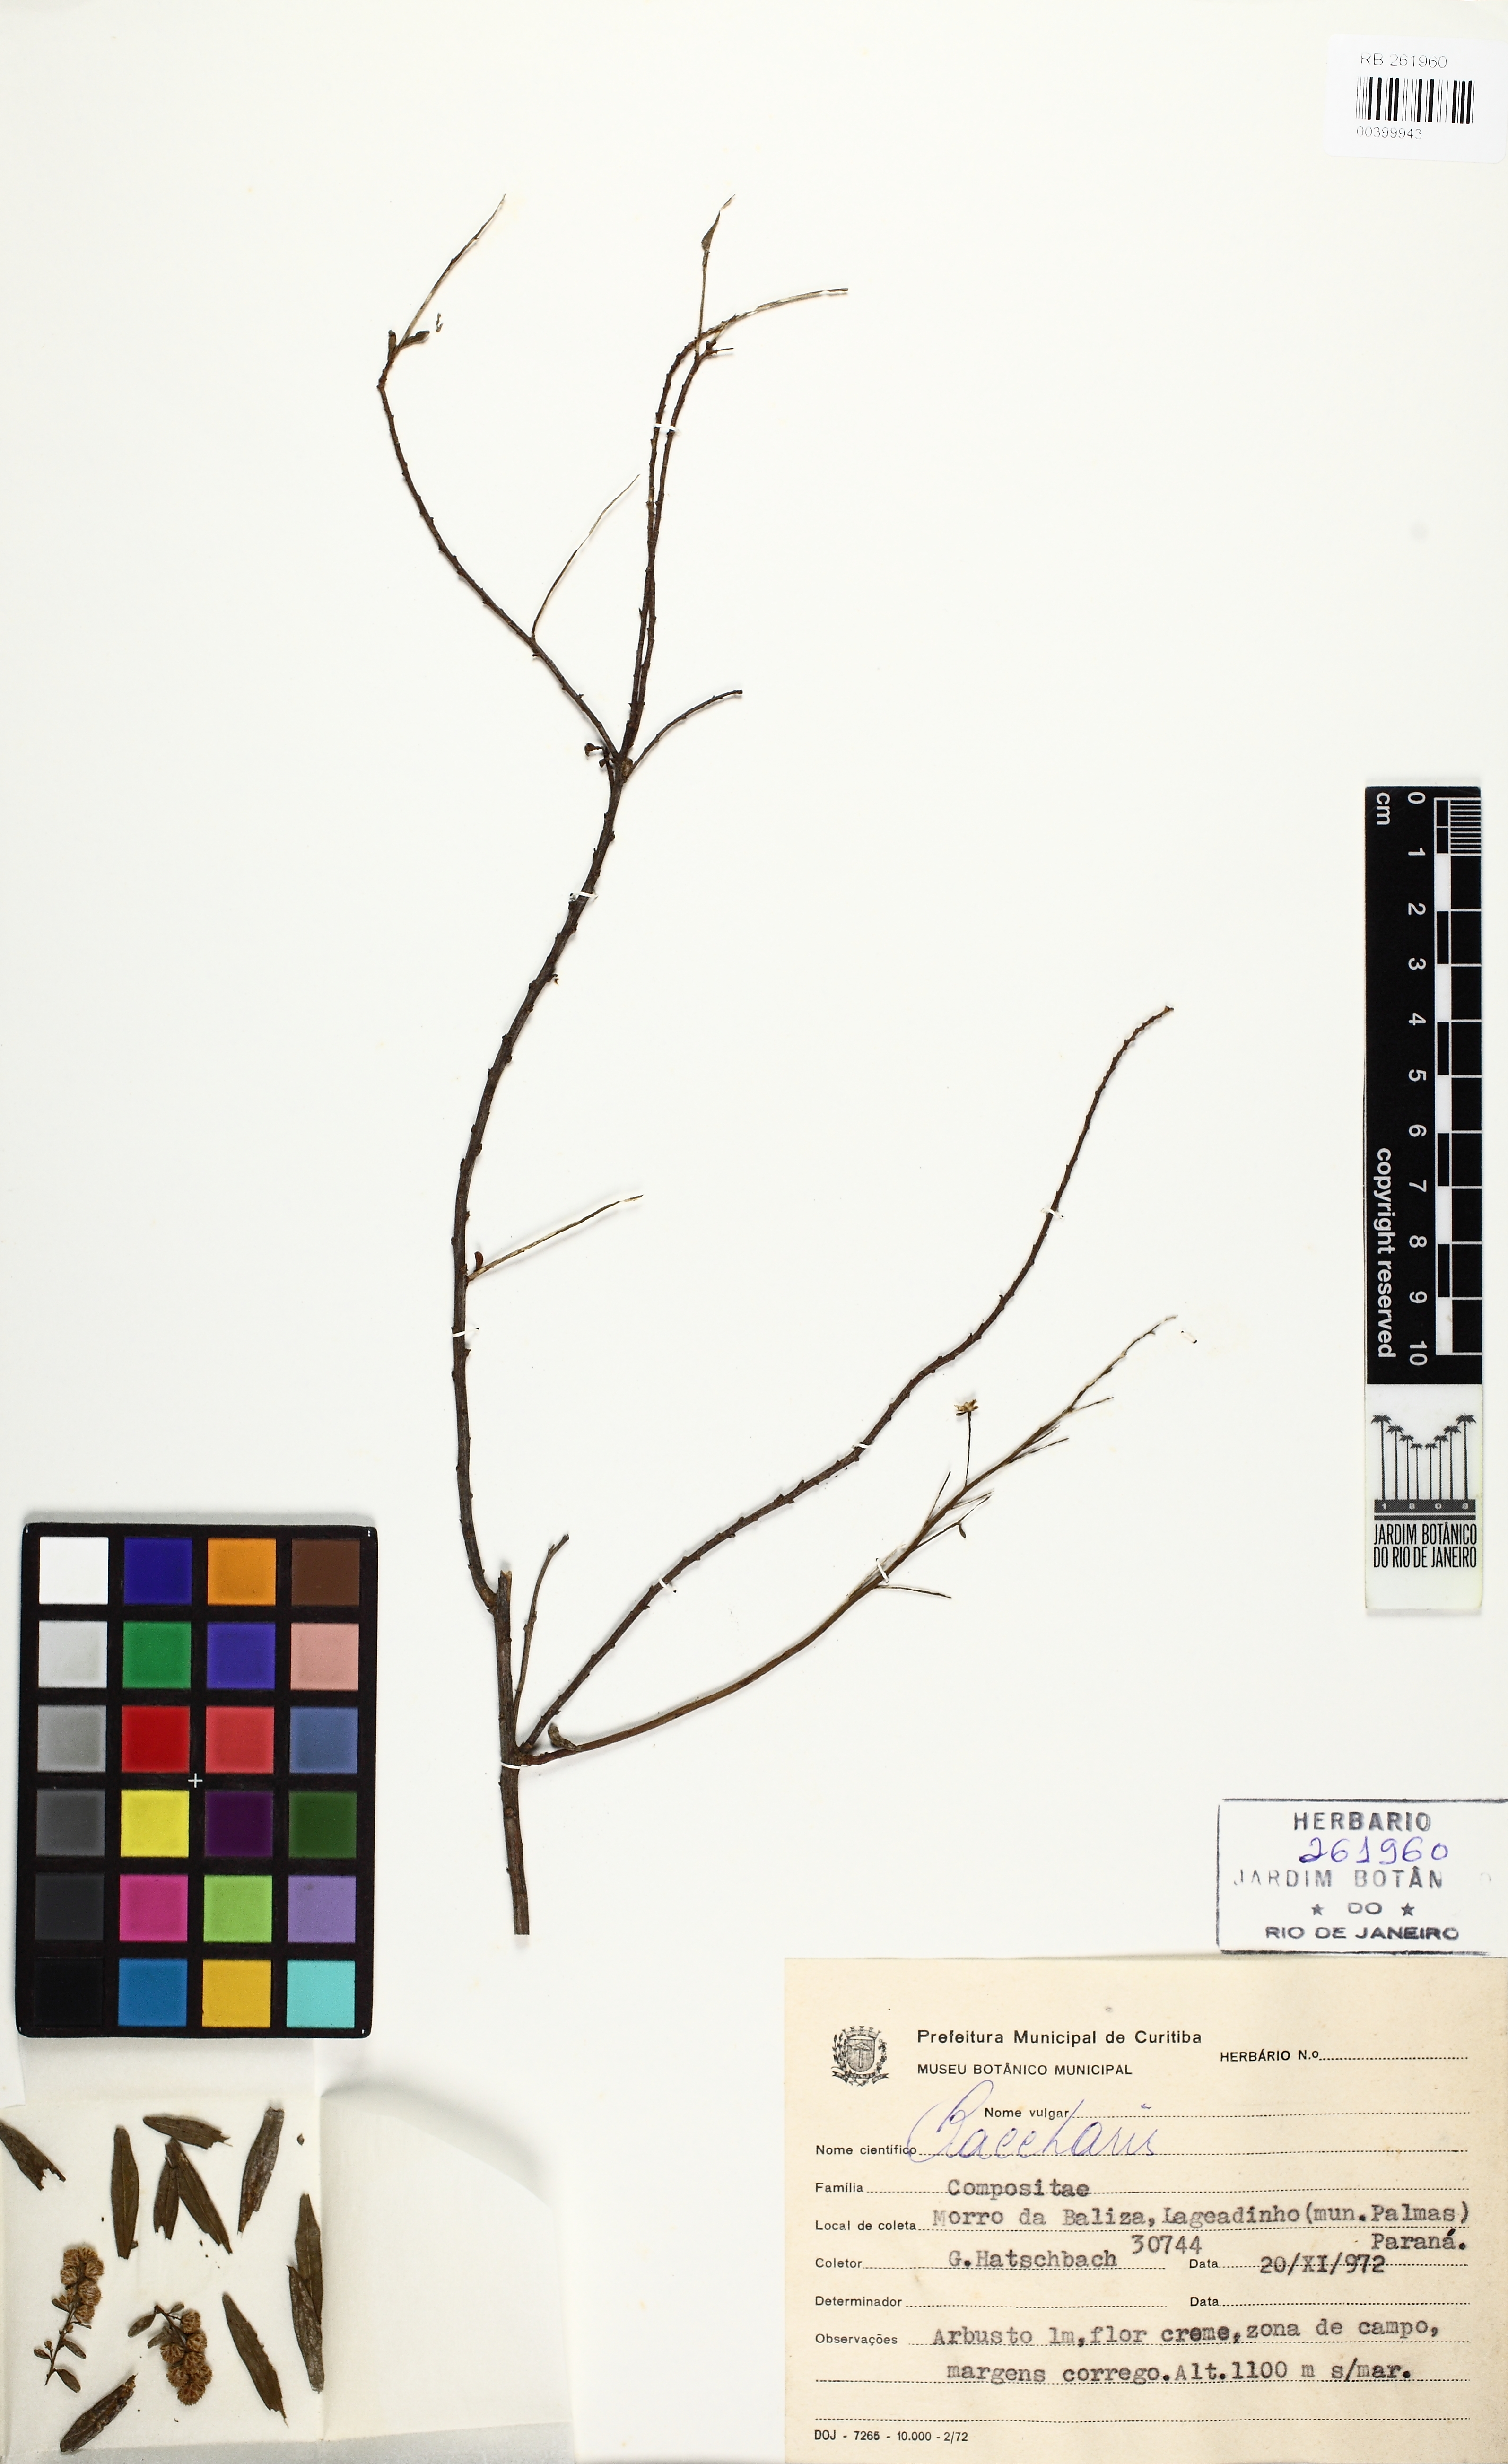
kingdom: Plantae
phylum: Tracheophyta
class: Magnoliopsida
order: Asterales
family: Asteraceae
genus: Baccharis
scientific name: Baccharis
